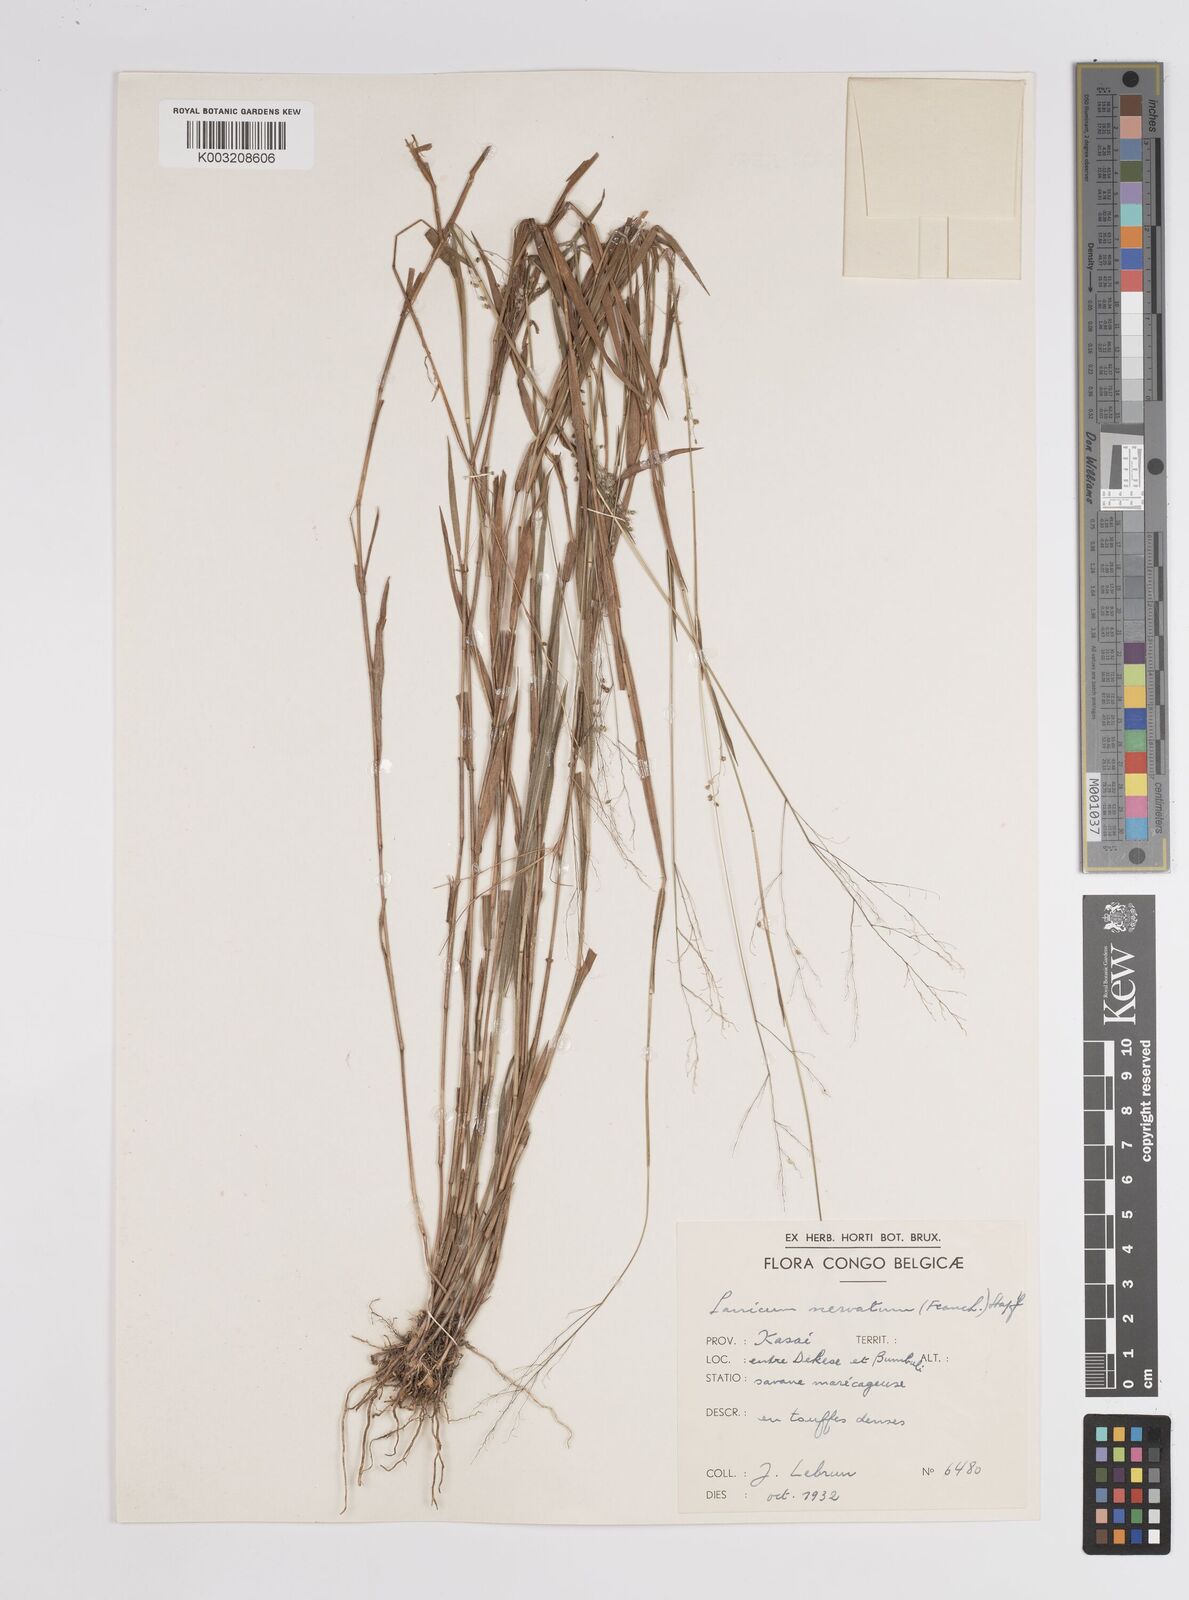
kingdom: Plantae
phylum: Tracheophyta
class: Liliopsida
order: Poales
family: Poaceae
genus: Trichanthecium
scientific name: Trichanthecium nervatum
